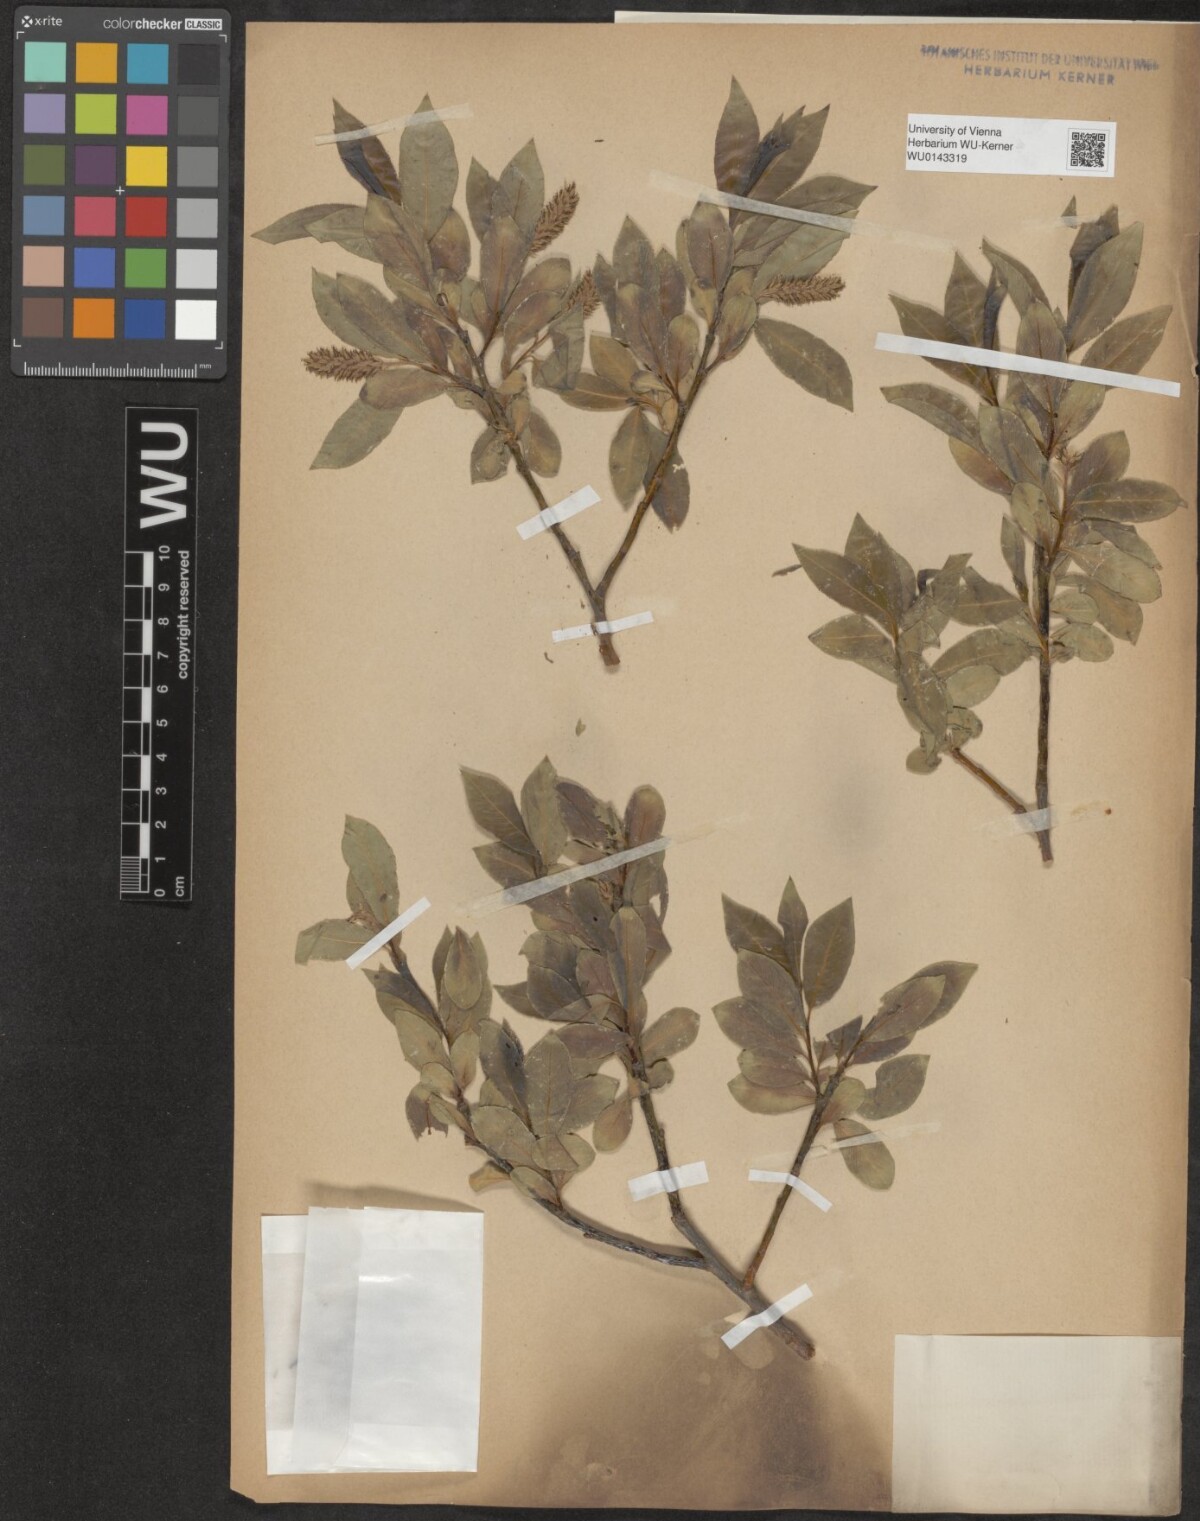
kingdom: Plantae
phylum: Tracheophyta
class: Magnoliopsida
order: Malpighiales
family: Salicaceae
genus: Salix
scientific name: Salix pentandra
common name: Bay willow
